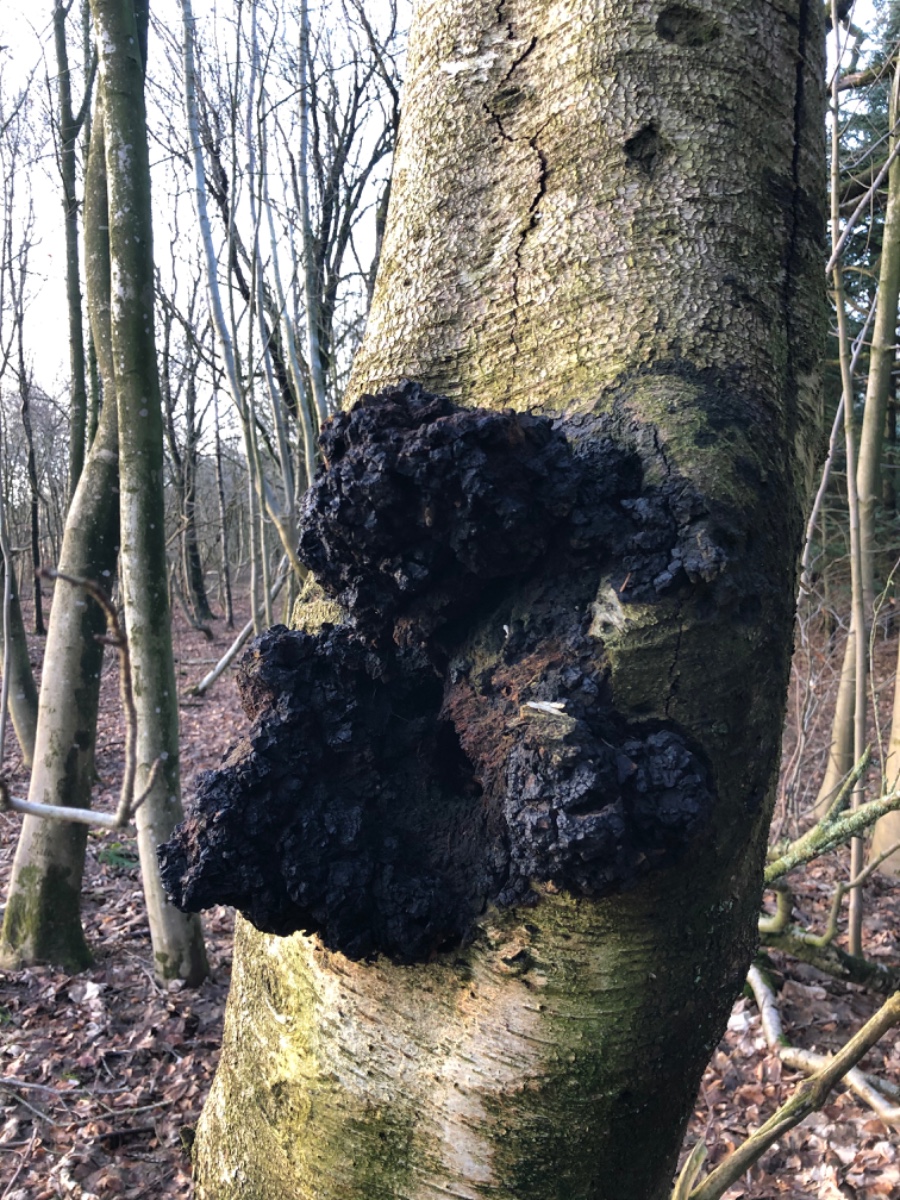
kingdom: Fungi
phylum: Basidiomycota
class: Agaricomycetes
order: Hymenochaetales
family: Hymenochaetaceae
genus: Inonotus
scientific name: Inonotus obliquus
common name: birke-spejlporesvamp
